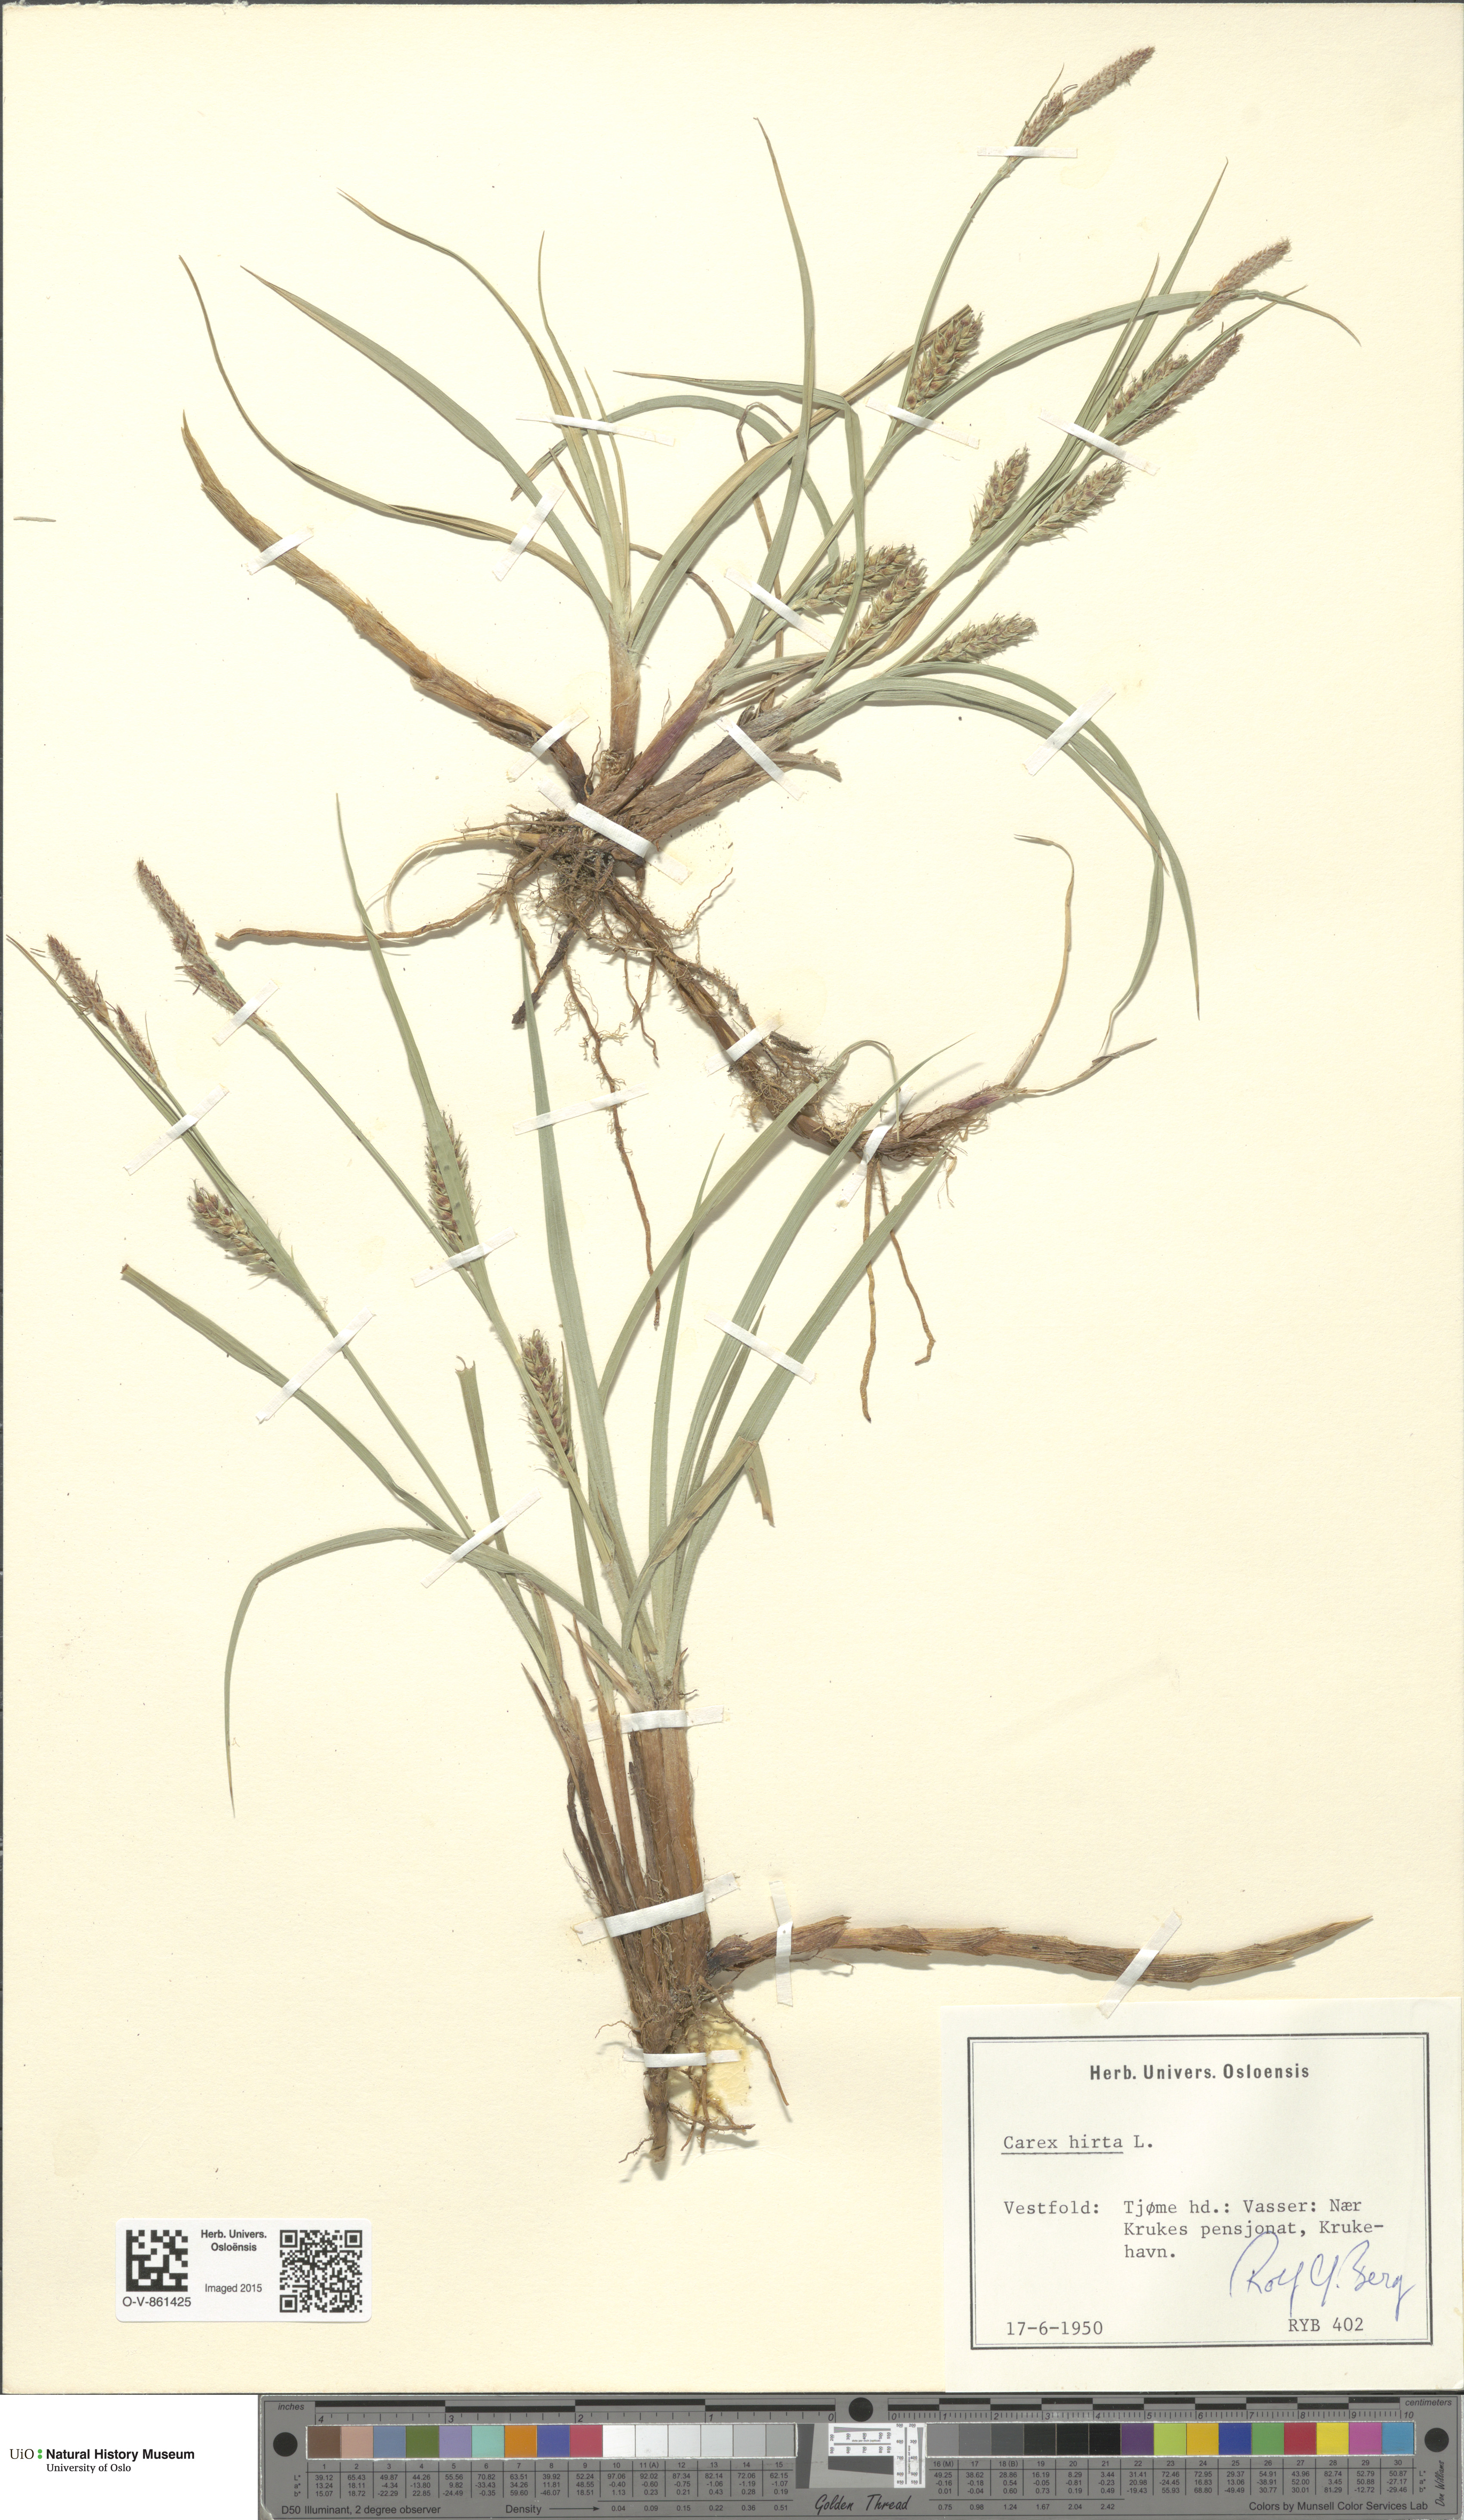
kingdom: Plantae
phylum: Tracheophyta
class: Liliopsida
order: Poales
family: Cyperaceae
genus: Carex
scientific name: Carex hirta
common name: Hairy sedge
